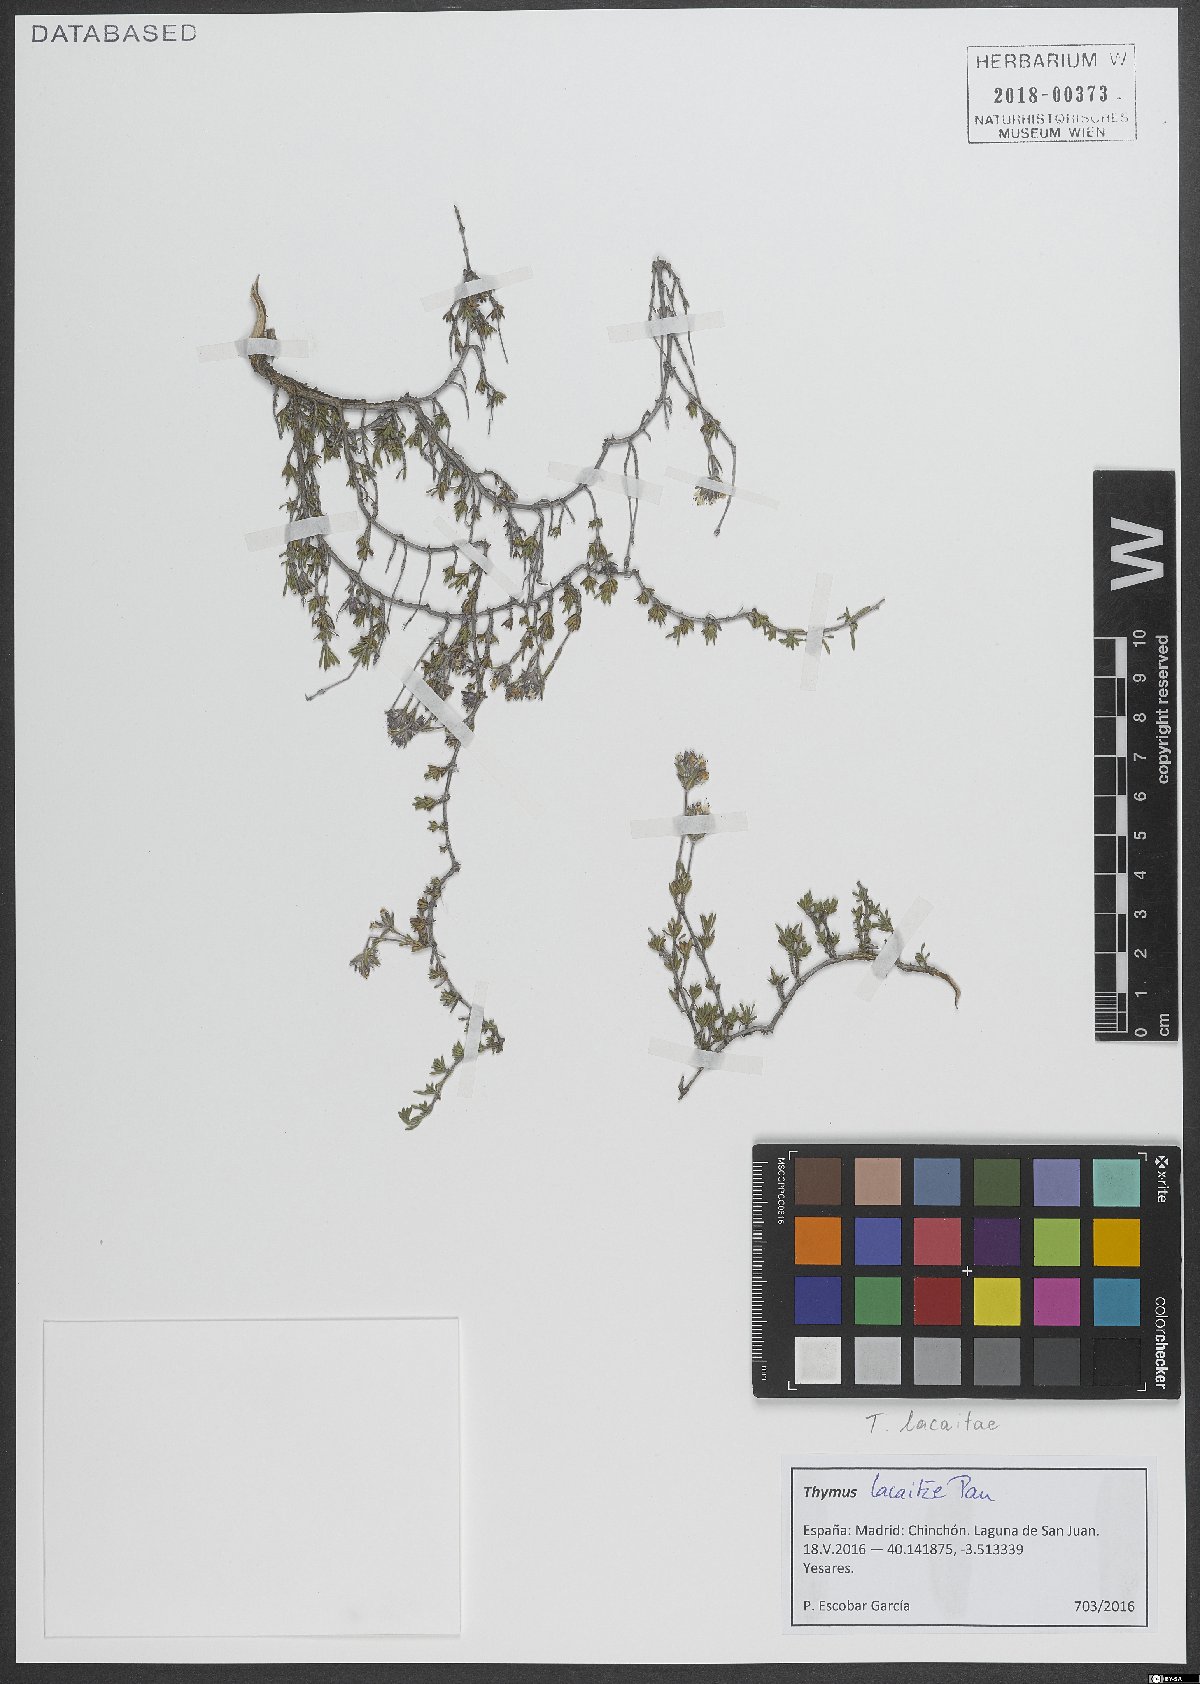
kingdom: Plantae
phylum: Tracheophyta
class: Magnoliopsida
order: Lamiales
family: Lamiaceae
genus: Thymus
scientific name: Thymus lacaitae
